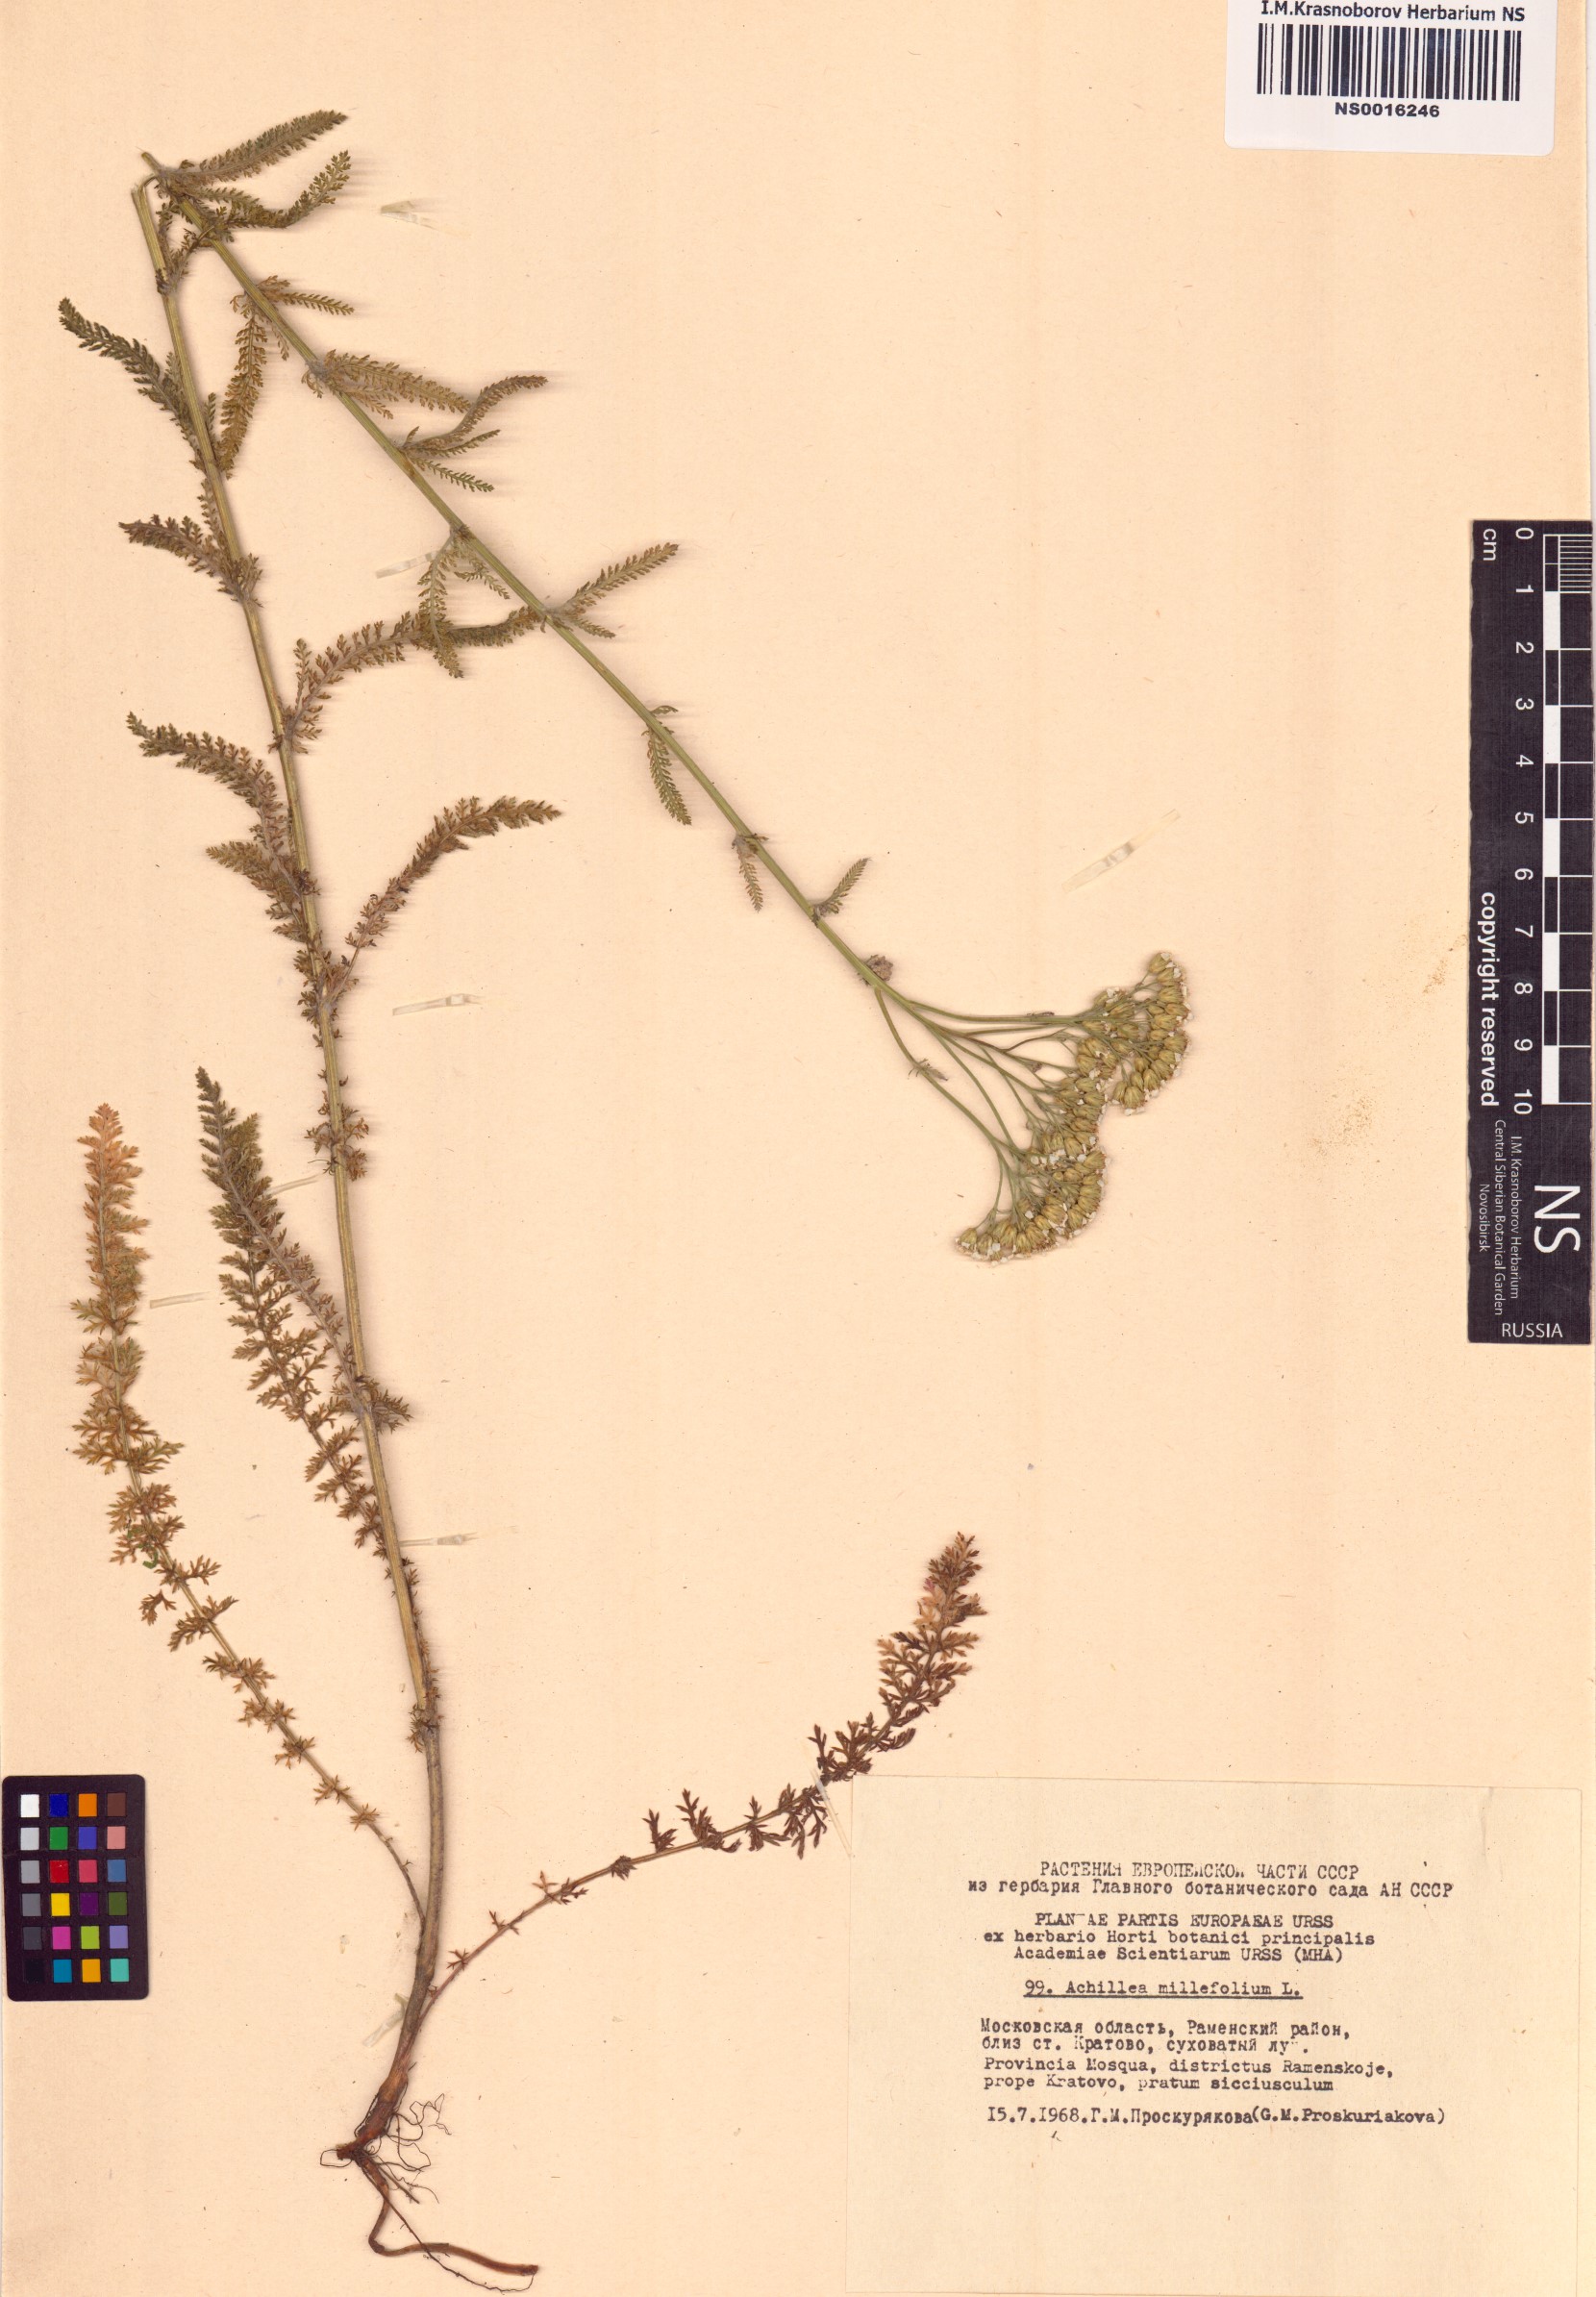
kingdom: Plantae
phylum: Tracheophyta
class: Magnoliopsida
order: Asterales
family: Asteraceae
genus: Achillea
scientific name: Achillea millefolium
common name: Yarrow
